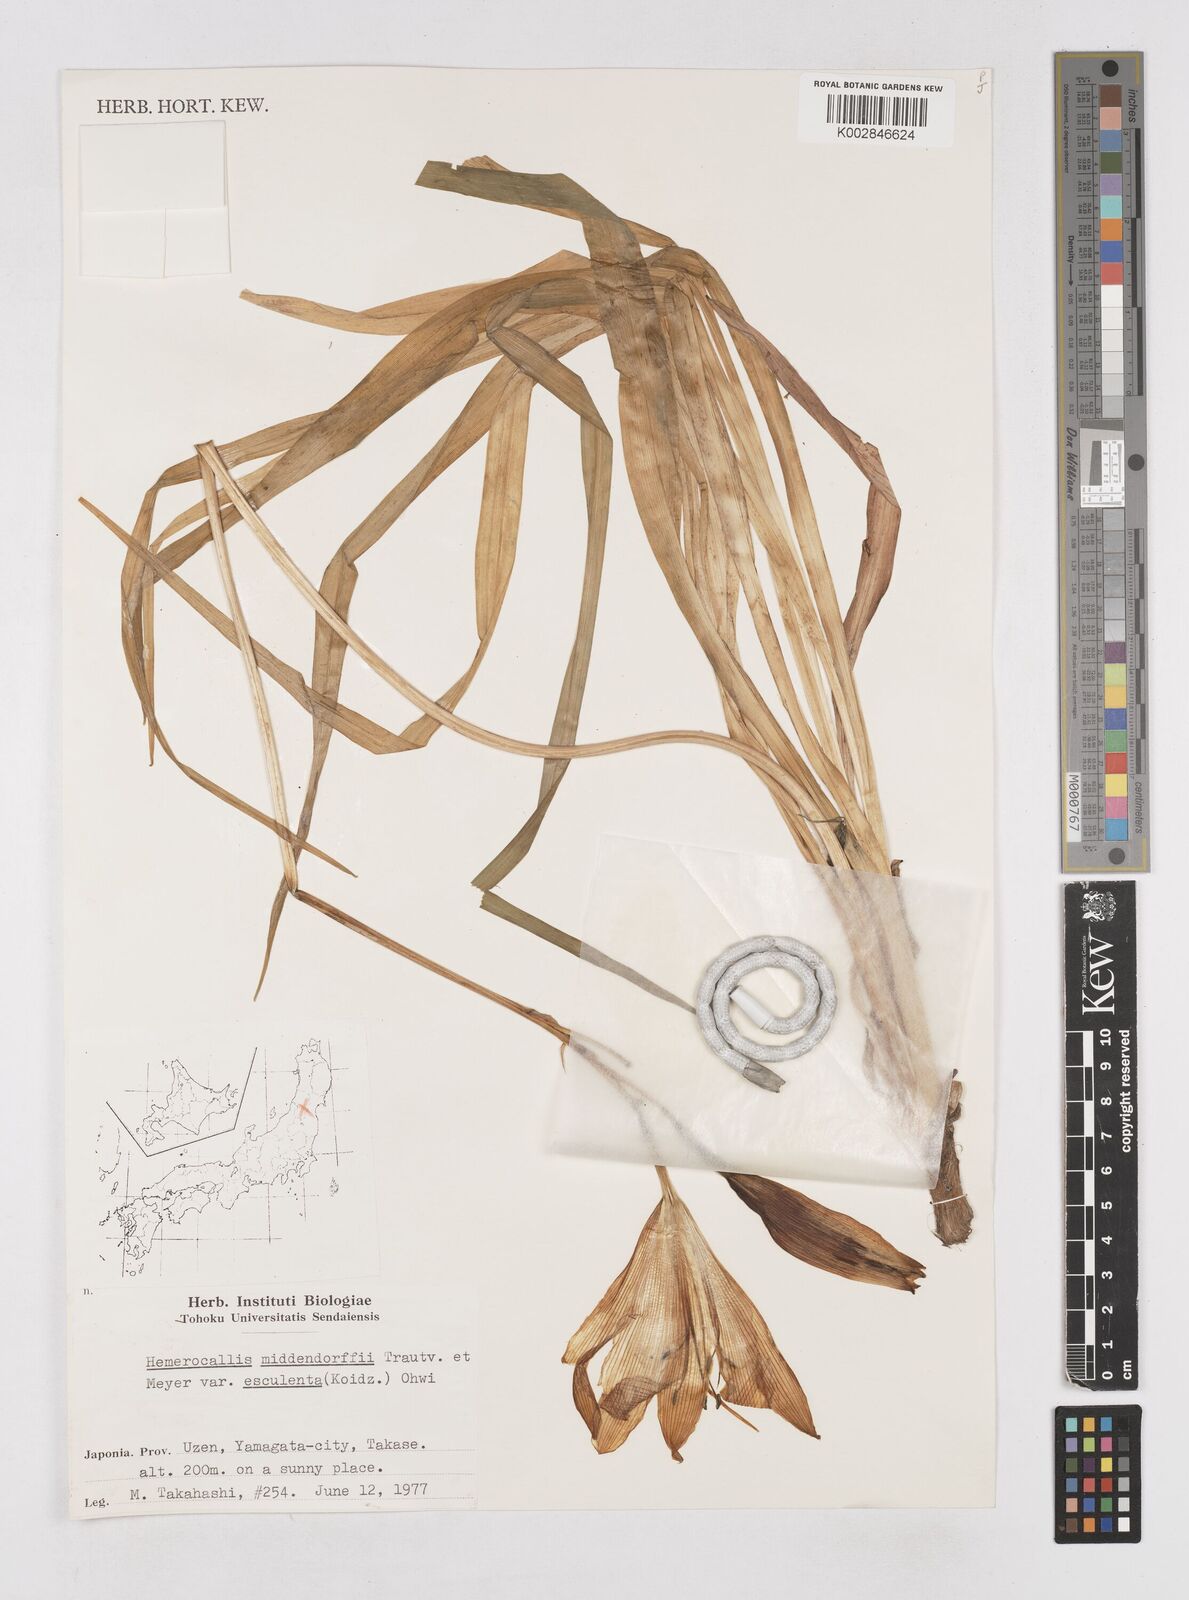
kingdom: Plantae
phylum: Tracheophyta
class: Liliopsida
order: Asparagales
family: Asphodelaceae
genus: Hemerocallis
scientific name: Hemerocallis middendorffii
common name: Amur day-lily
